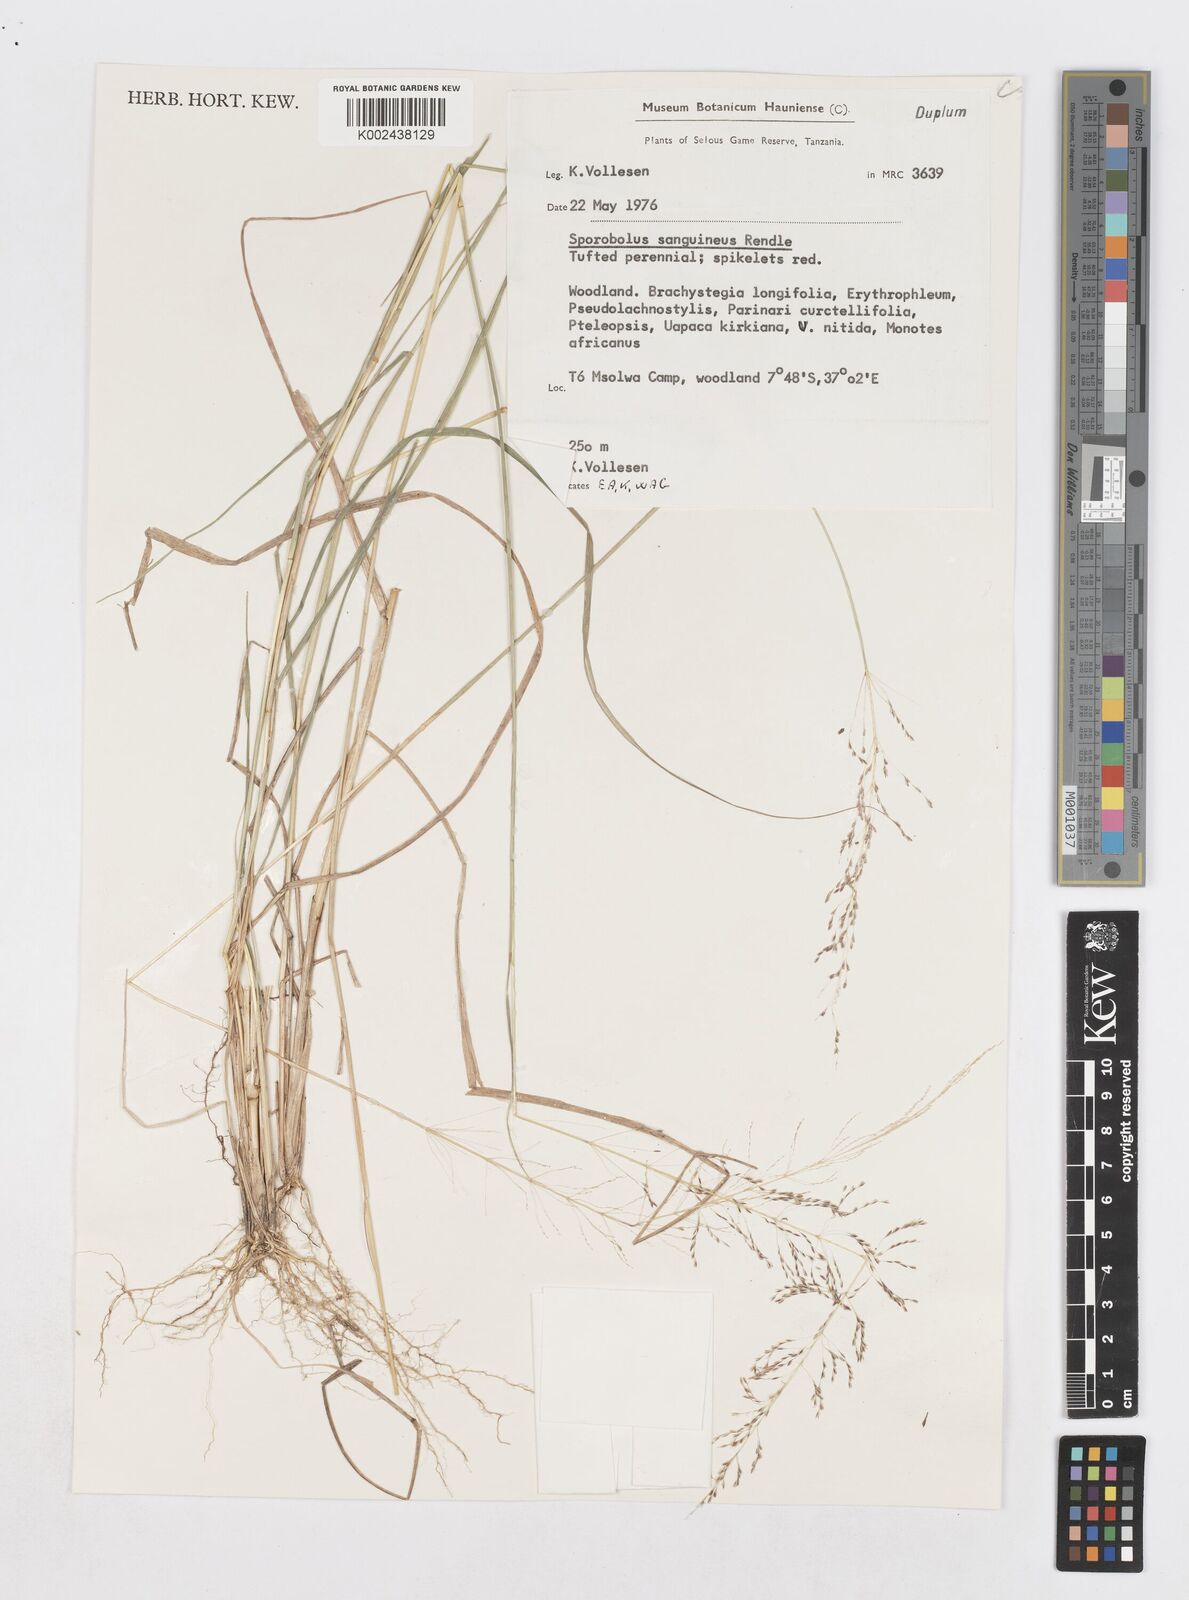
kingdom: Plantae
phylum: Tracheophyta
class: Liliopsida
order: Poales
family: Poaceae
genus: Sporobolus
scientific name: Sporobolus sanguineus
